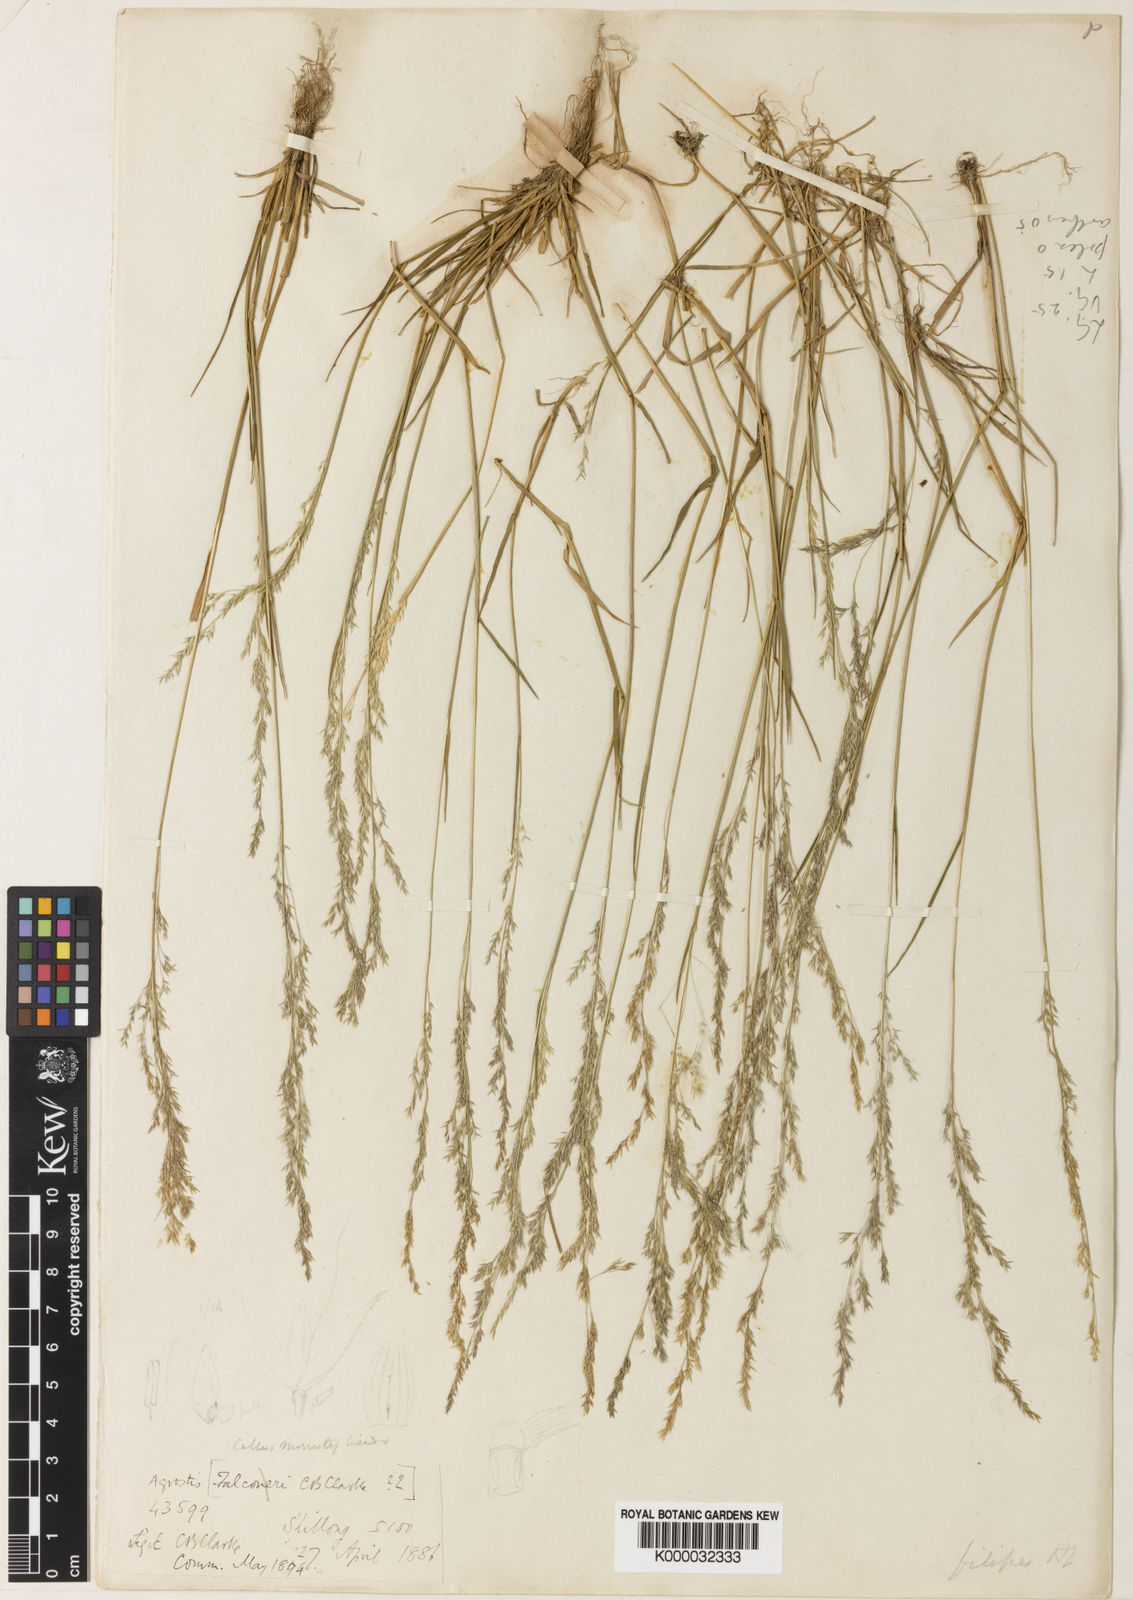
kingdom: Plantae
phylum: Tracheophyta
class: Liliopsida
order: Poales
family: Poaceae
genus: Agrostis
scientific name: Agrostis filipes
